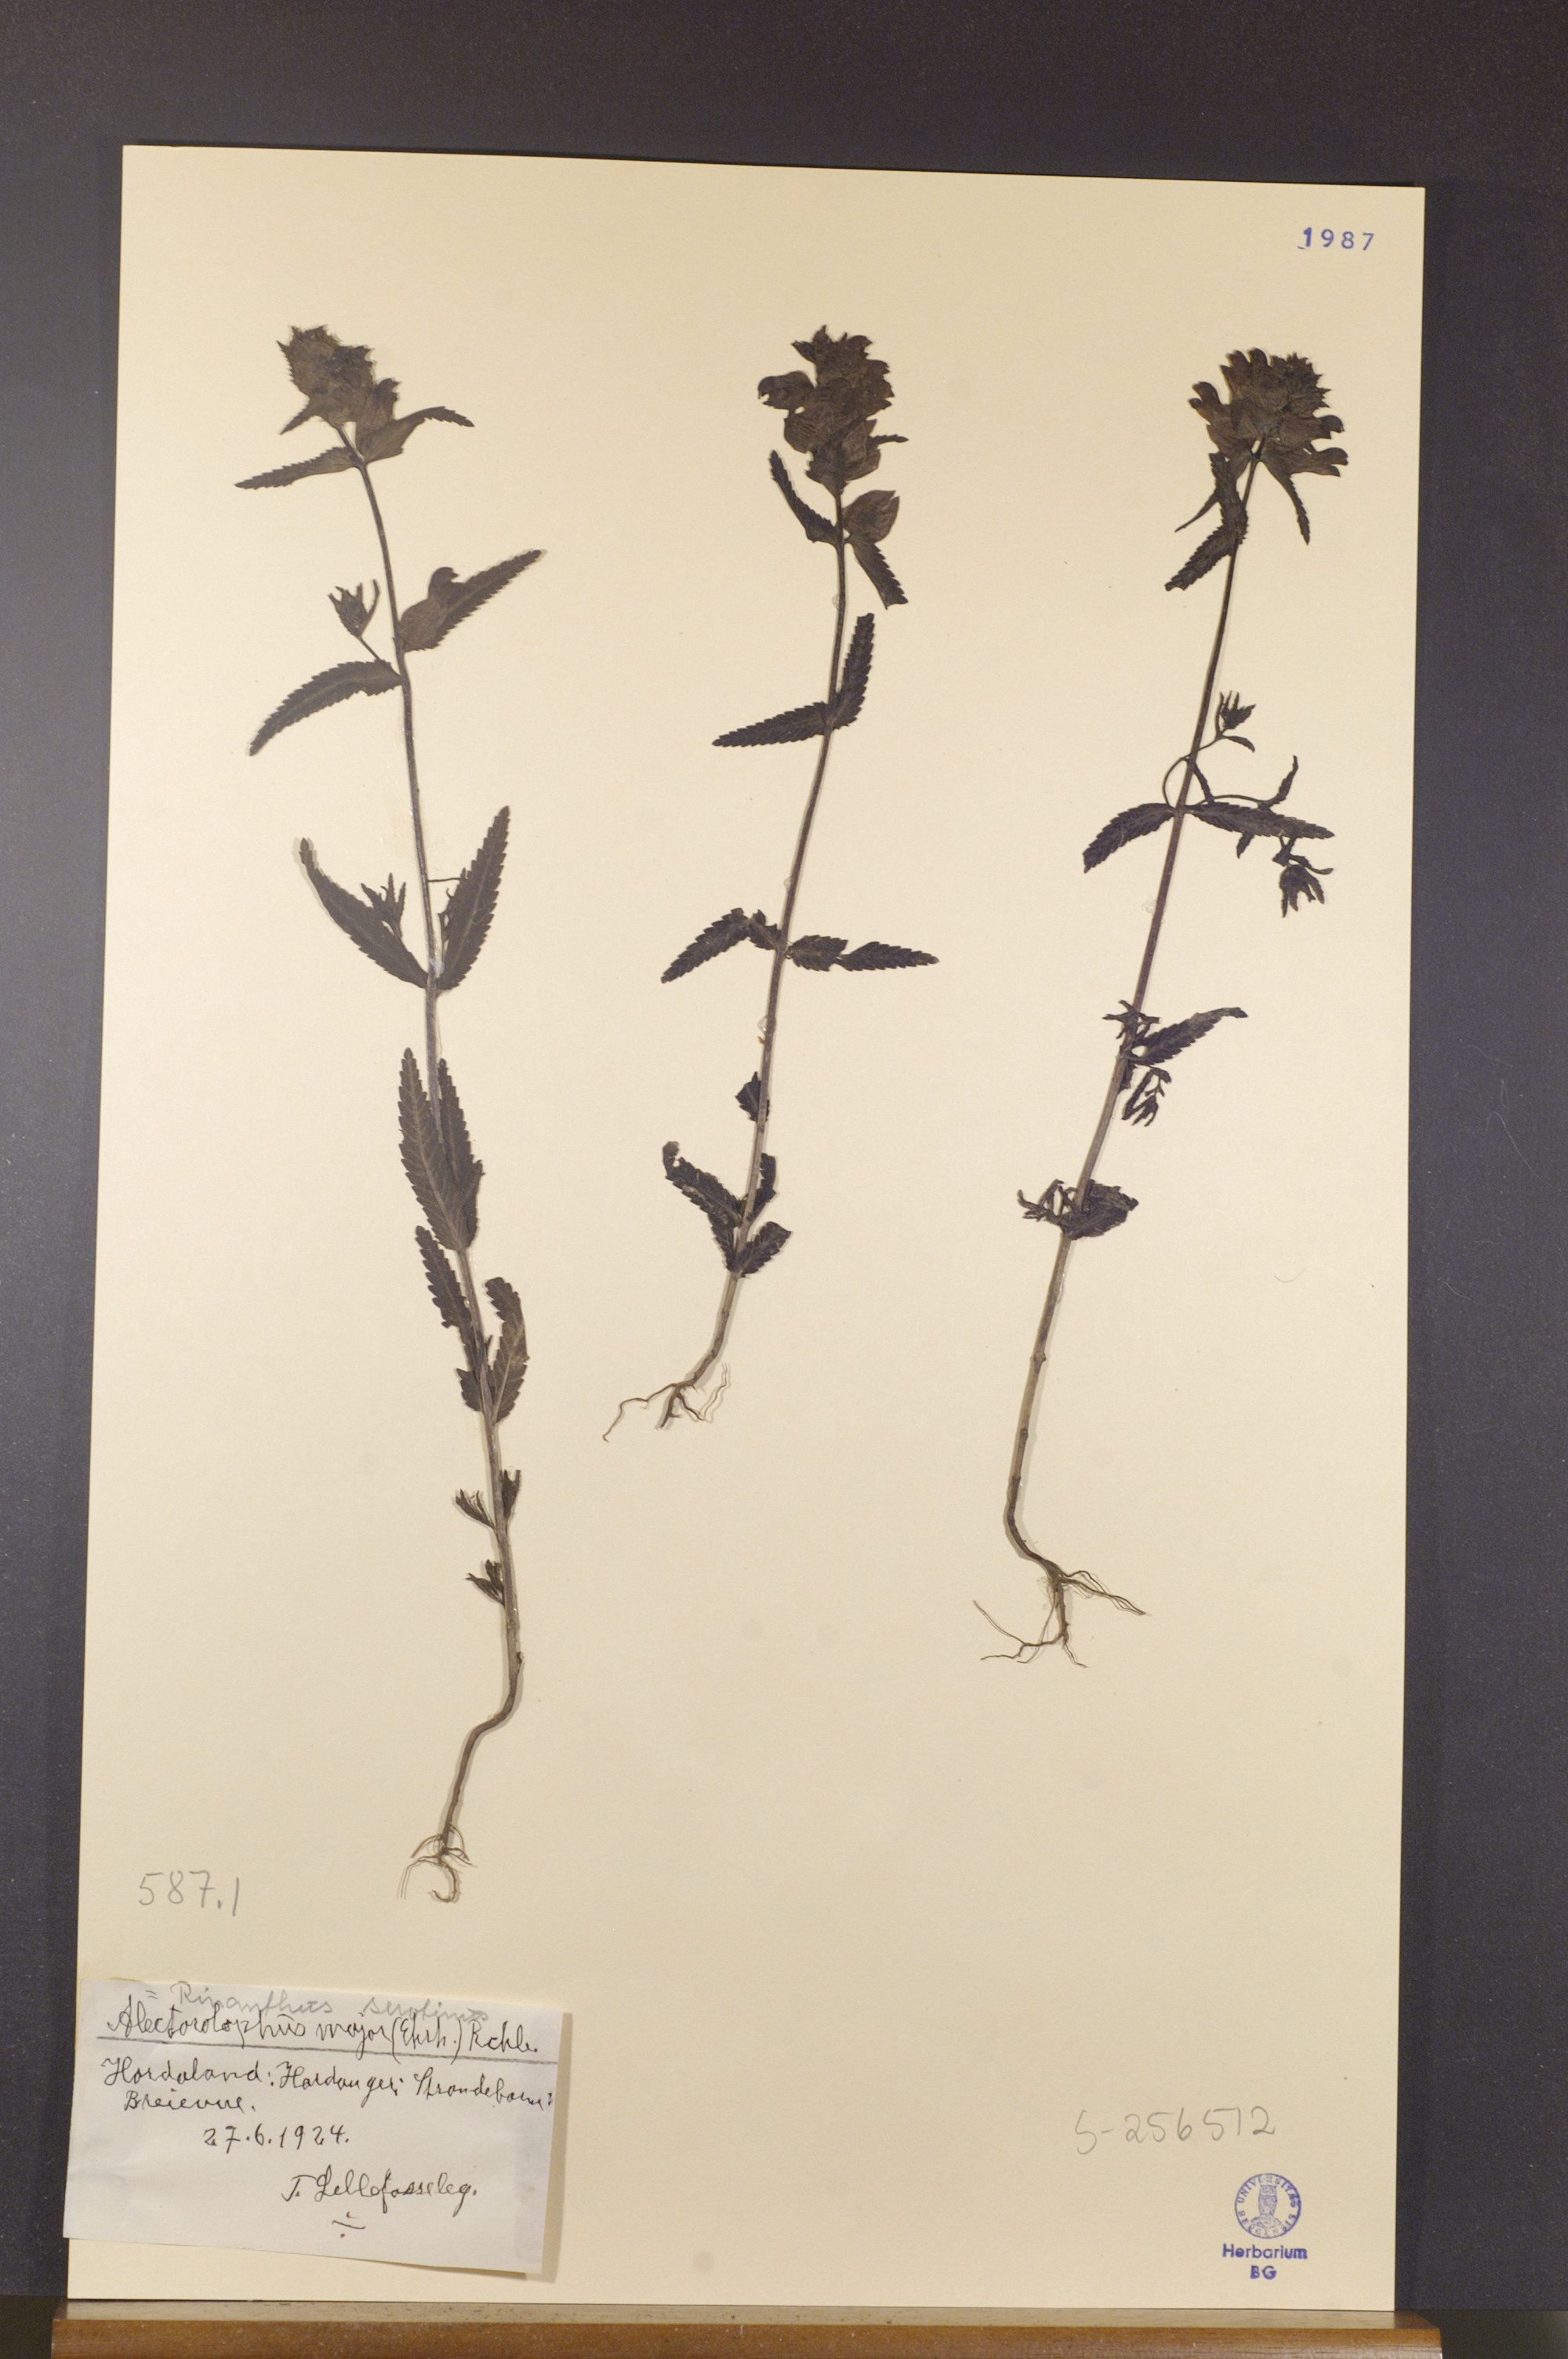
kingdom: Plantae
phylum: Tracheophyta
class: Magnoliopsida
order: Lamiales
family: Orobanchaceae
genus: Rhinanthus
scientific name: Rhinanthus serotinus
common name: Late-flowering yellow rattle
